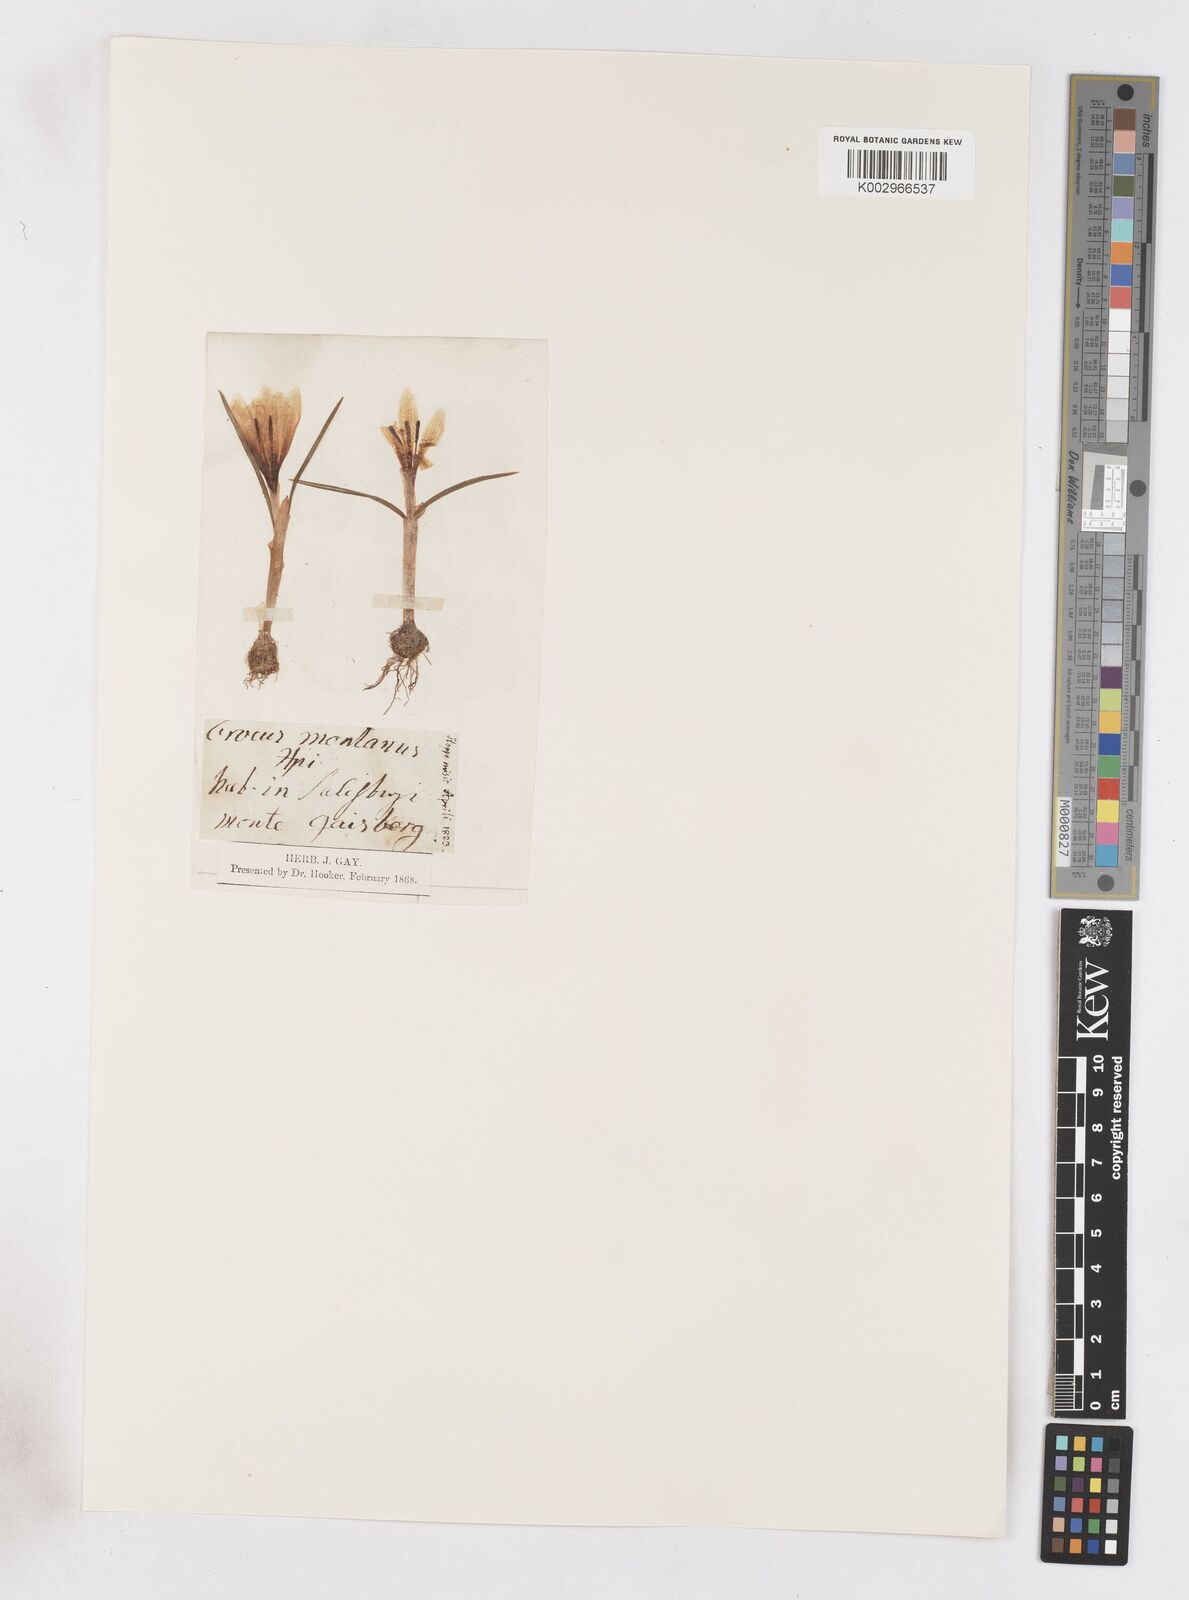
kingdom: Plantae
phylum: Tracheophyta
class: Liliopsida
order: Asparagales
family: Iridaceae
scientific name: Iridaceae
